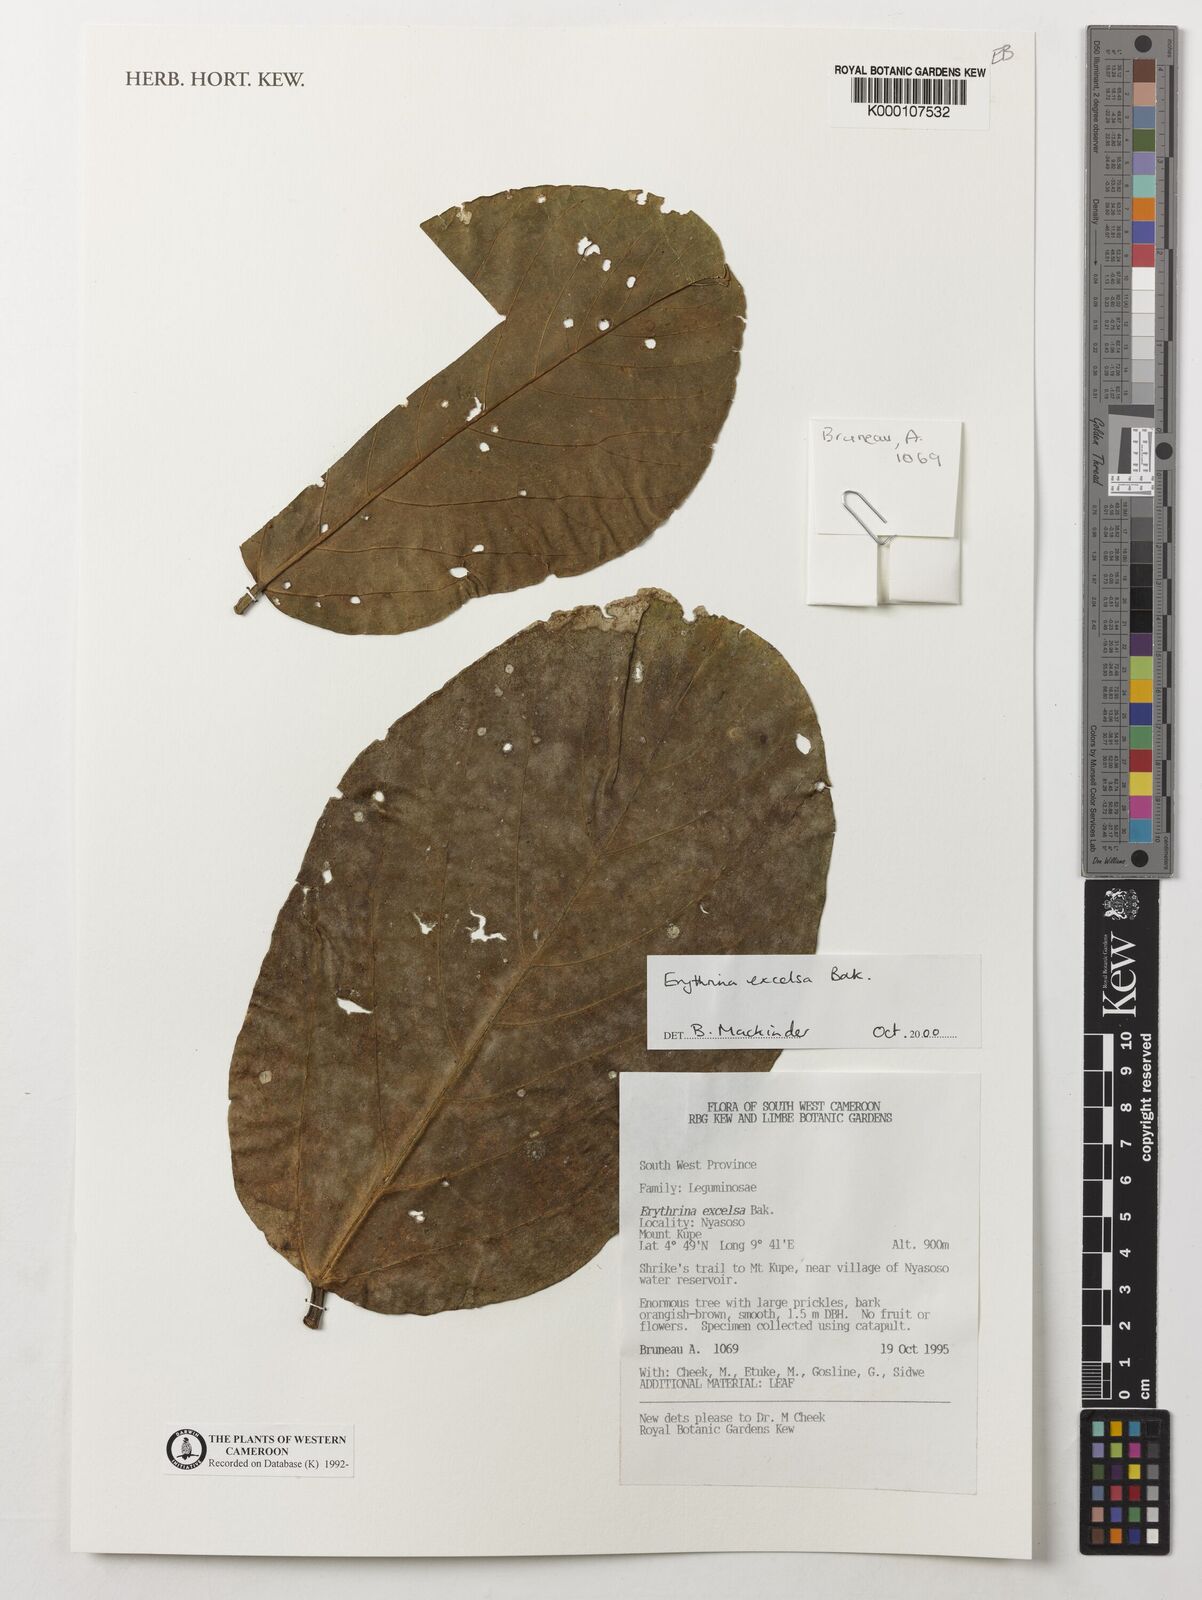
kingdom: Plantae
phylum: Tracheophyta
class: Magnoliopsida
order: Fabales
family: Fabaceae
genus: Erythrina
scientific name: Erythrina excelsa
